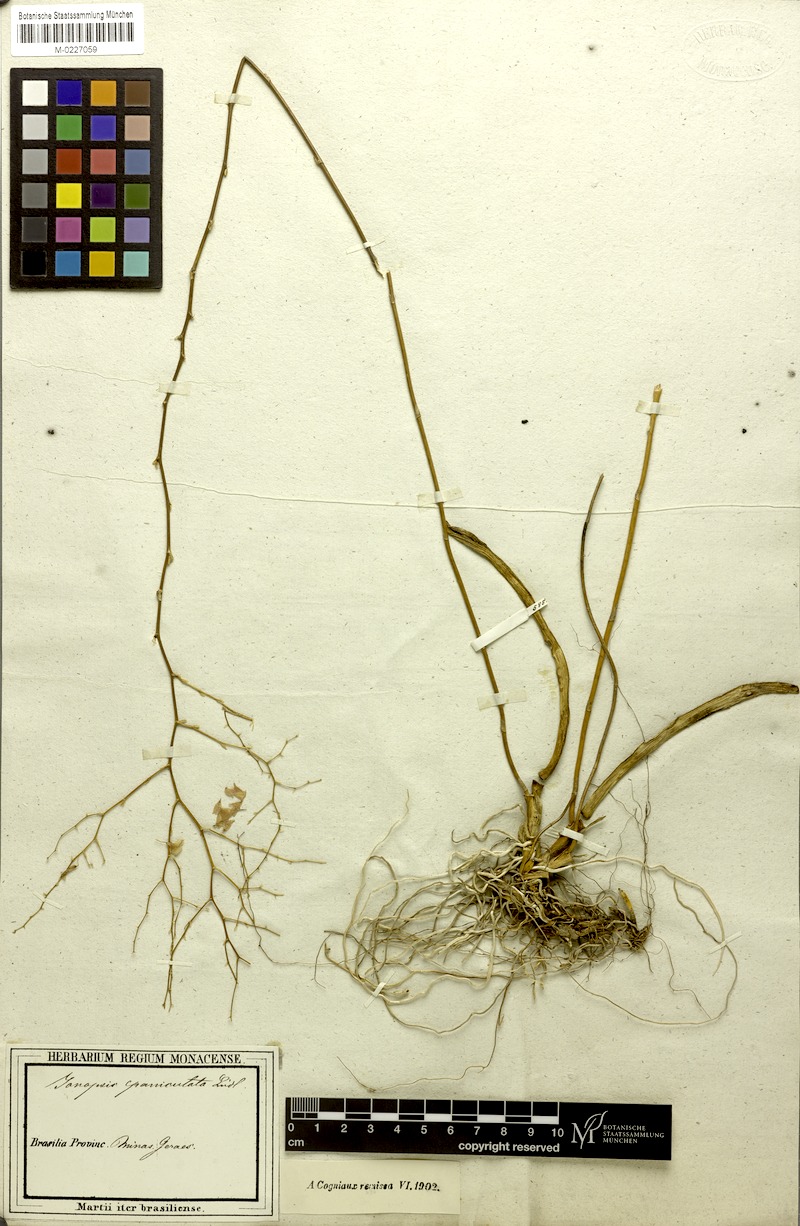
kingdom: Plantae
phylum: Tracheophyta
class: Liliopsida
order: Asparagales
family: Orchidaceae
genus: Ionopsis
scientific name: Ionopsis utricularioides
